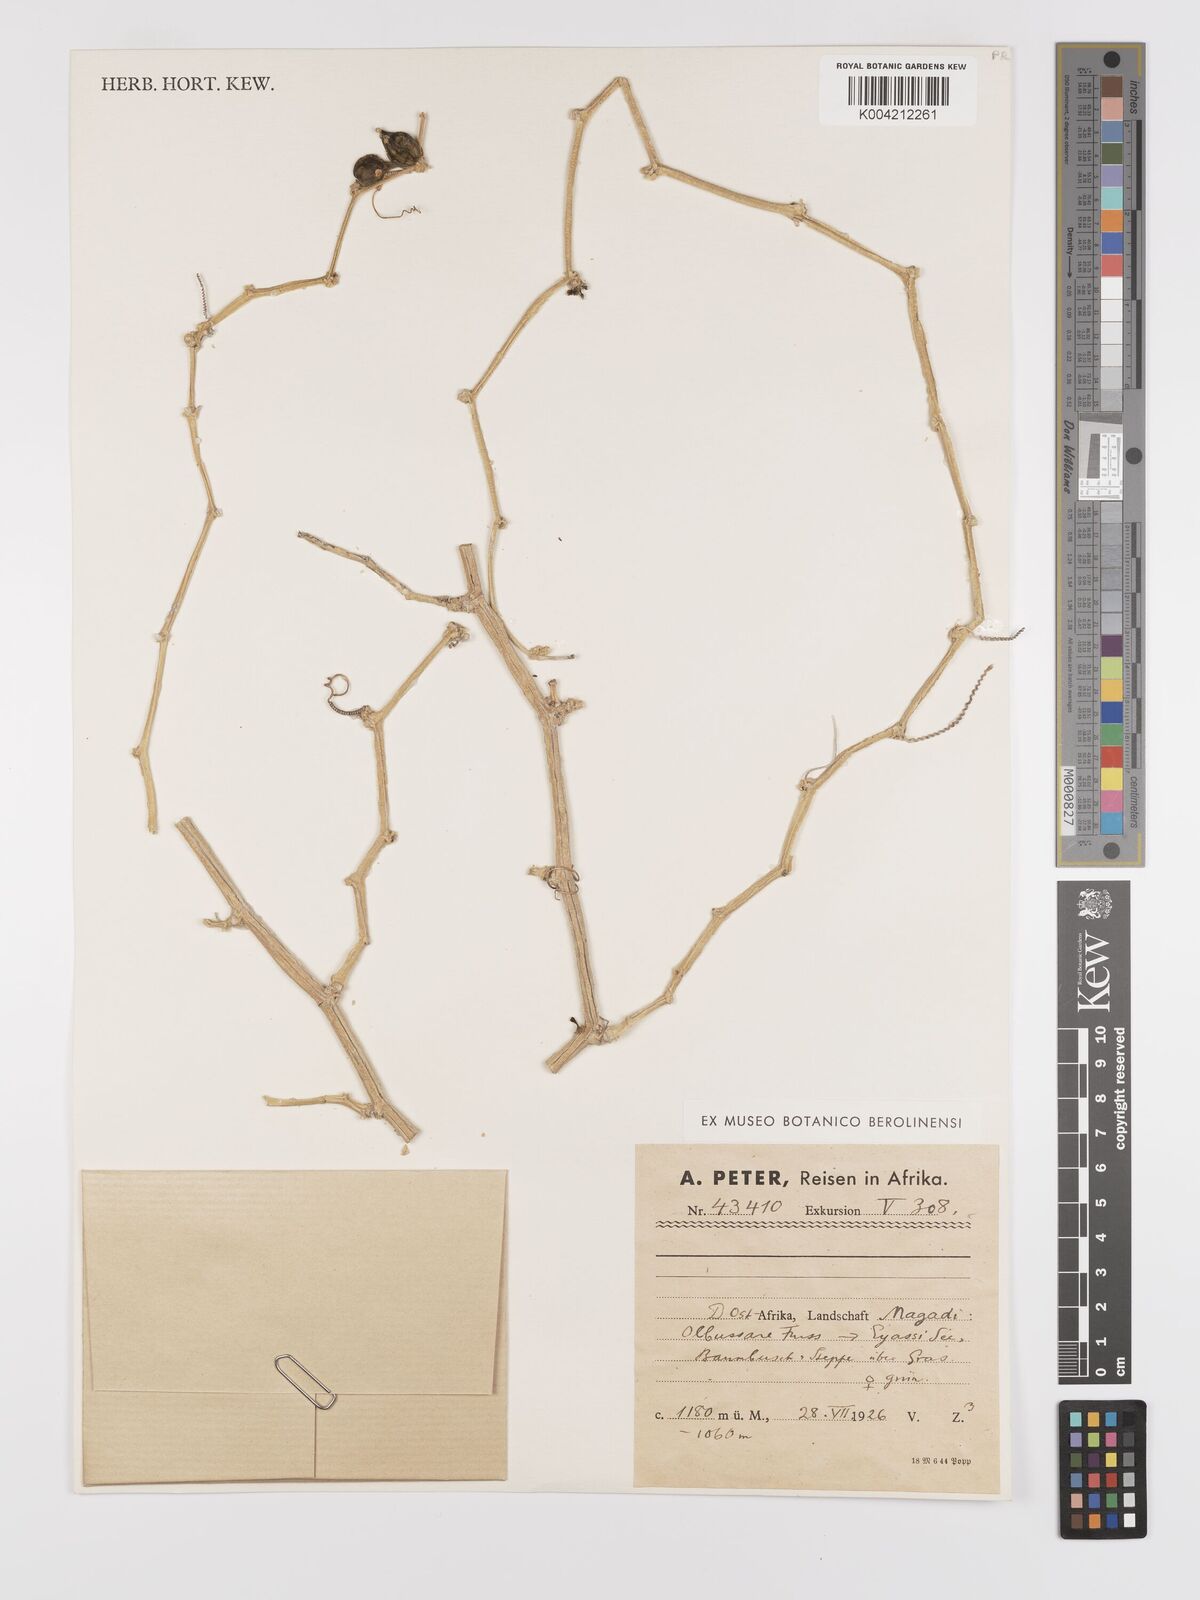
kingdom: Plantae
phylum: Tracheophyta
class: Magnoliopsida
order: Cucurbitales
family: Cucurbitaceae
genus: Kedrostis
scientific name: Kedrostis gijef
